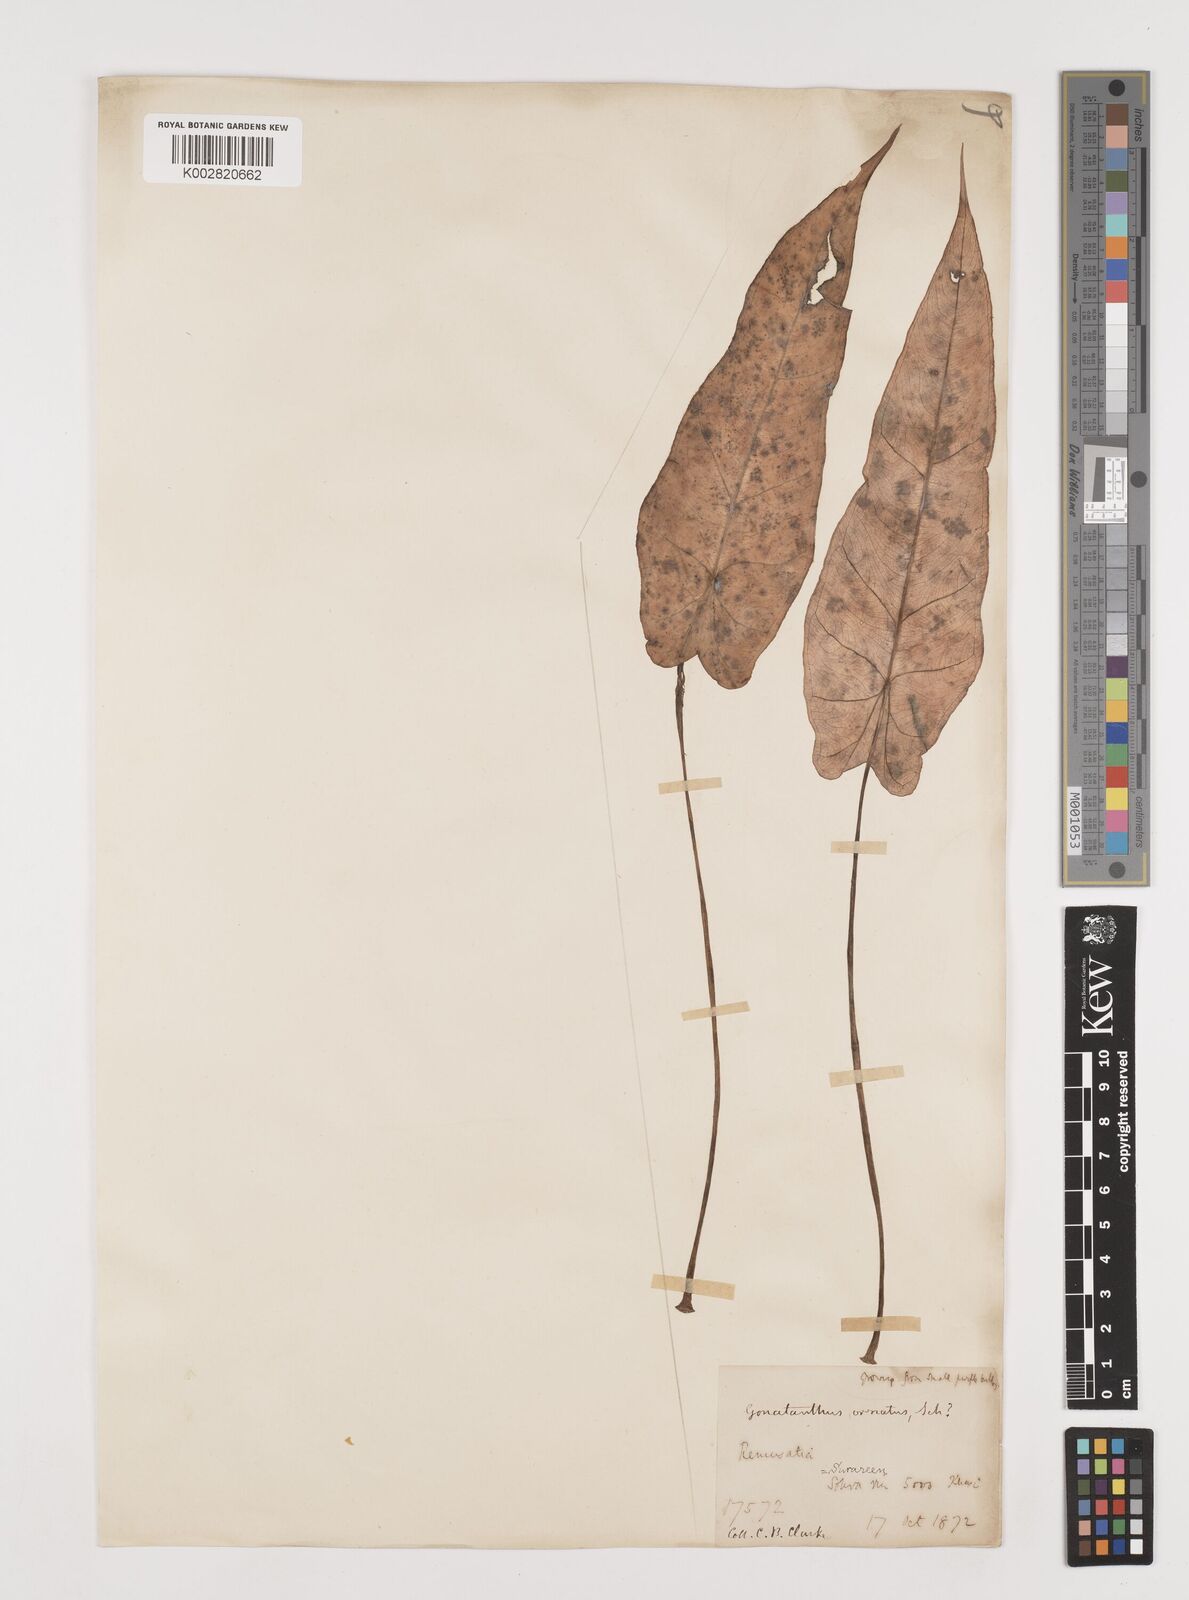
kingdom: Plantae
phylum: Tracheophyta
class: Liliopsida
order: Alismatales
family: Araceae
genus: Remusatia
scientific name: Remusatia hookeriana
